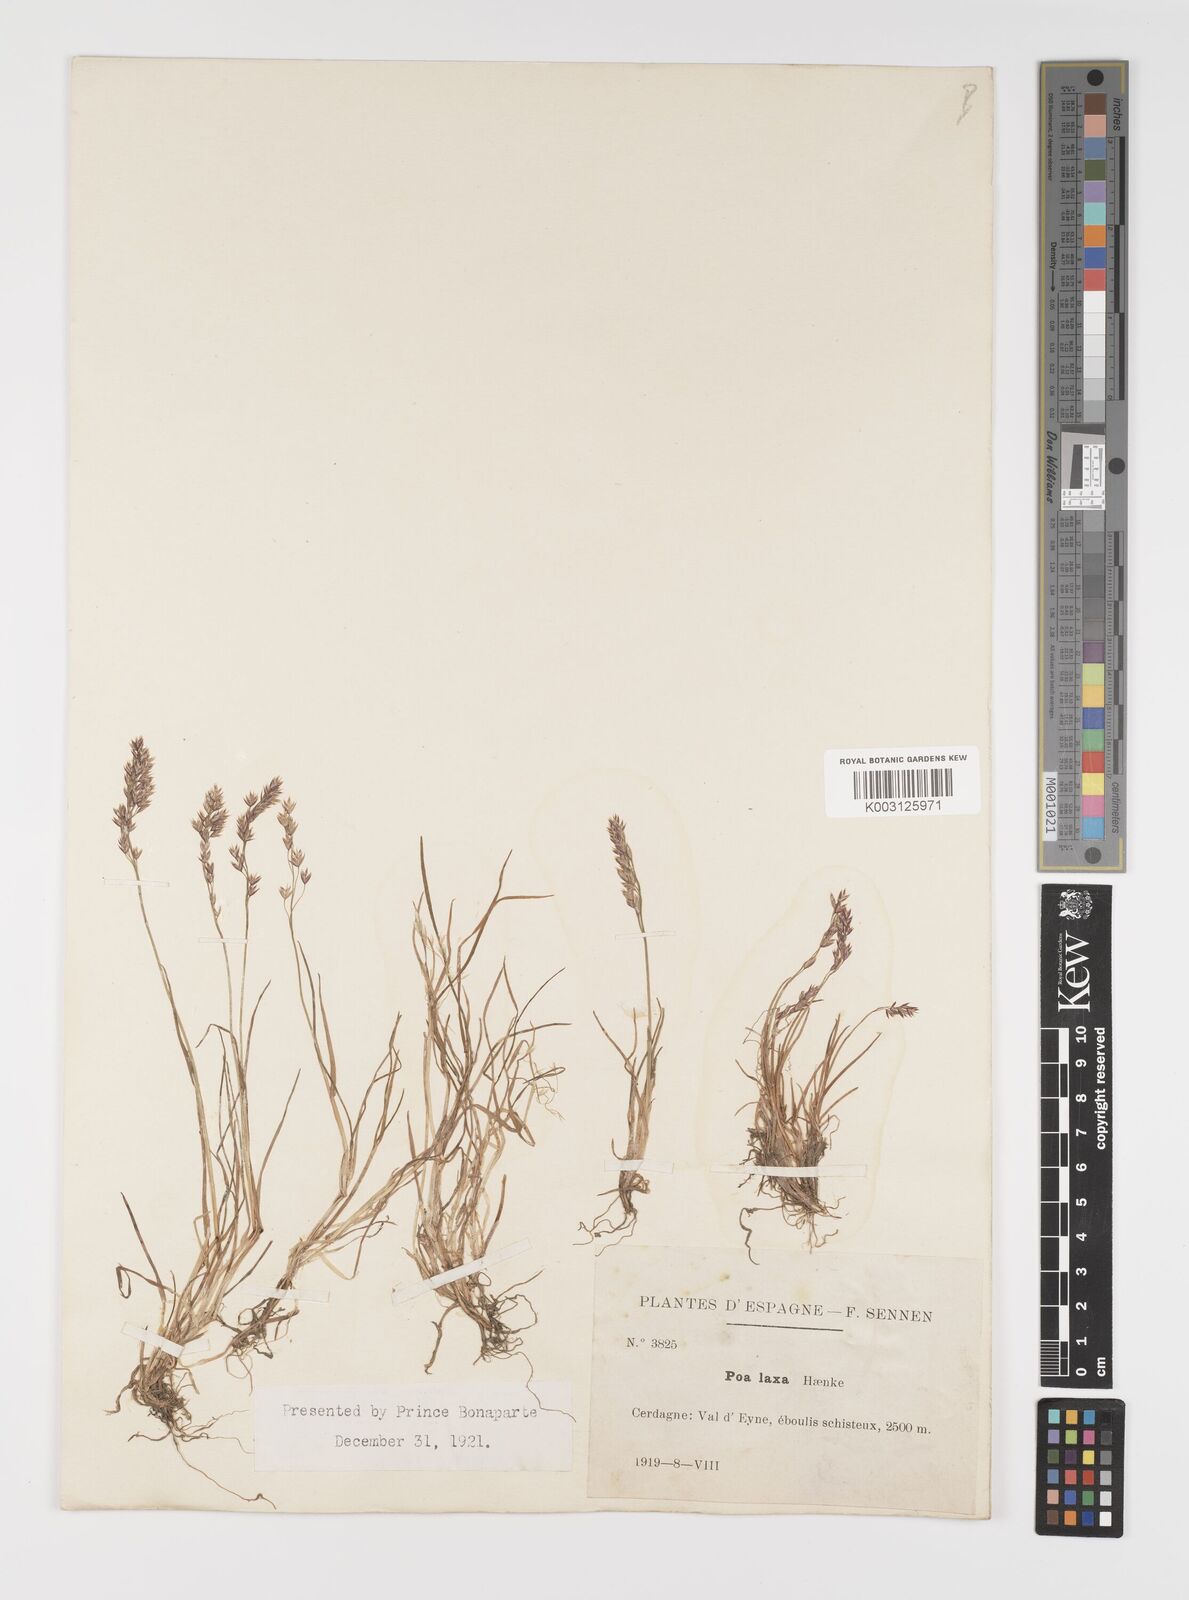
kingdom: Plantae
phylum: Tracheophyta
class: Liliopsida
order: Poales
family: Poaceae
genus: Poa
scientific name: Poa laxa
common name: Lax bluegrass
